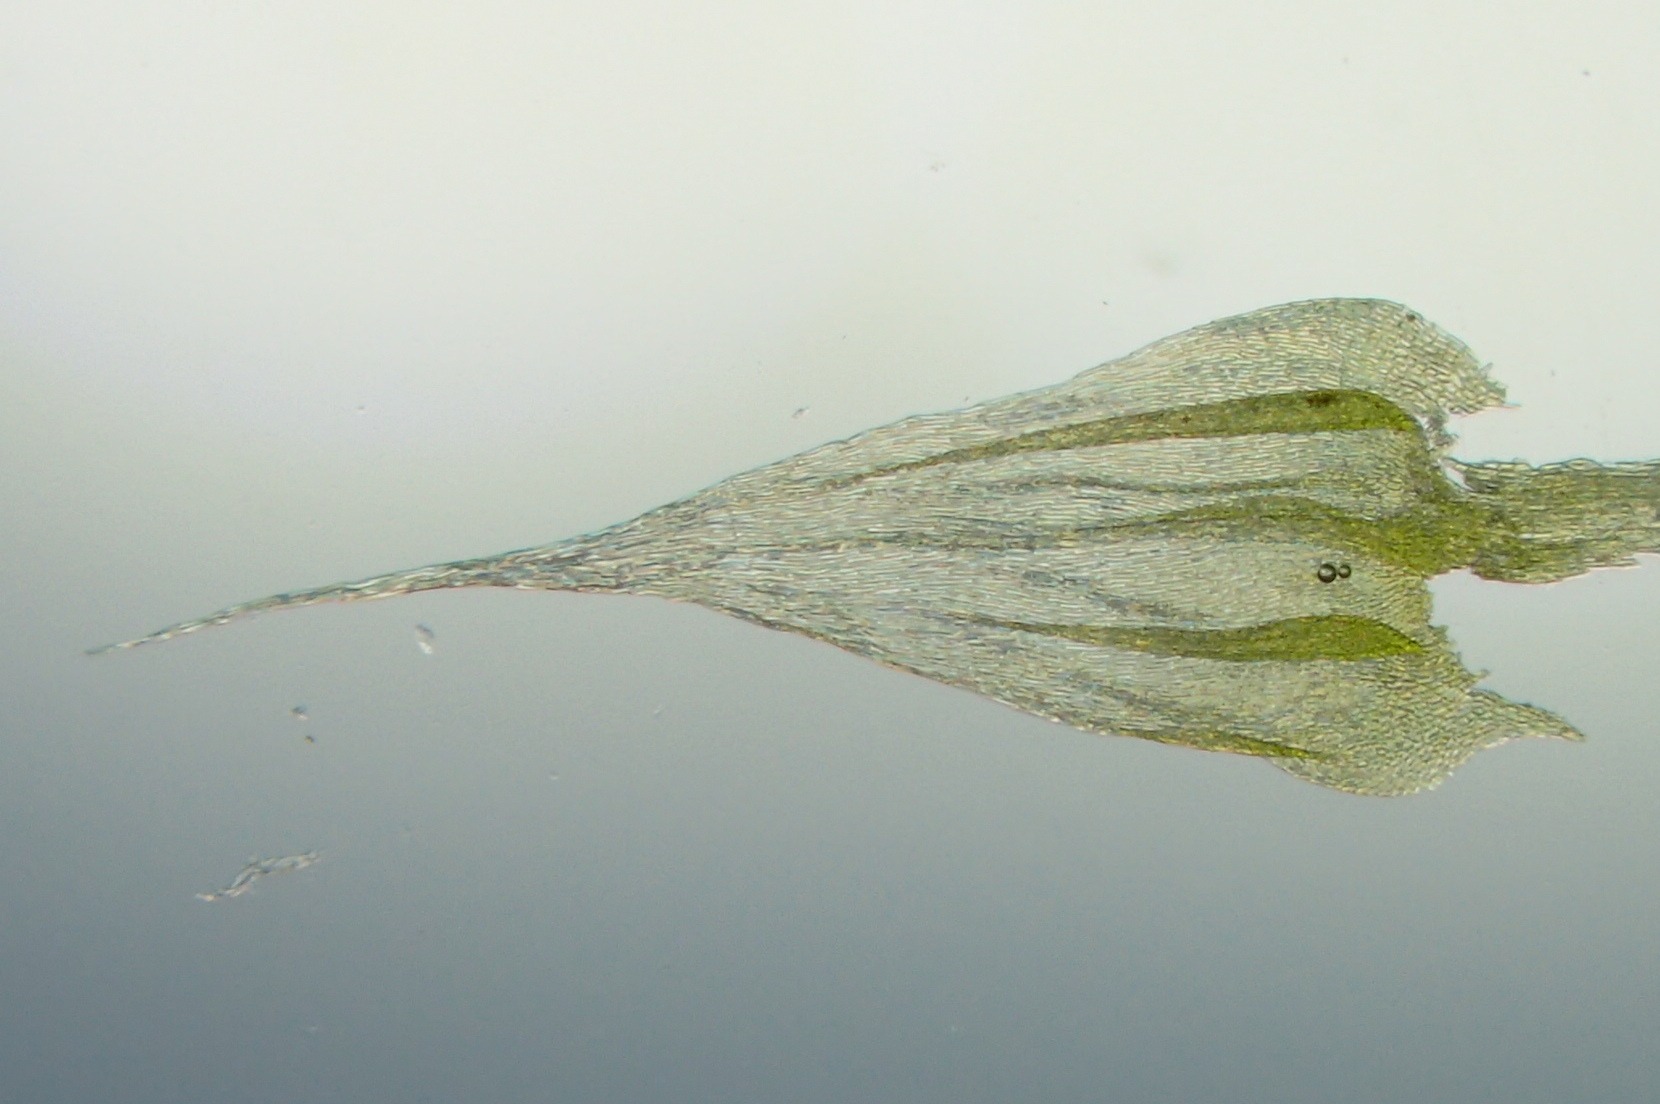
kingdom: Plantae
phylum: Bryophyta
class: Bryopsida
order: Hypnales
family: Brachytheciaceae
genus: Homalothecium
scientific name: Homalothecium sericeum
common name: Krybende silkemos
